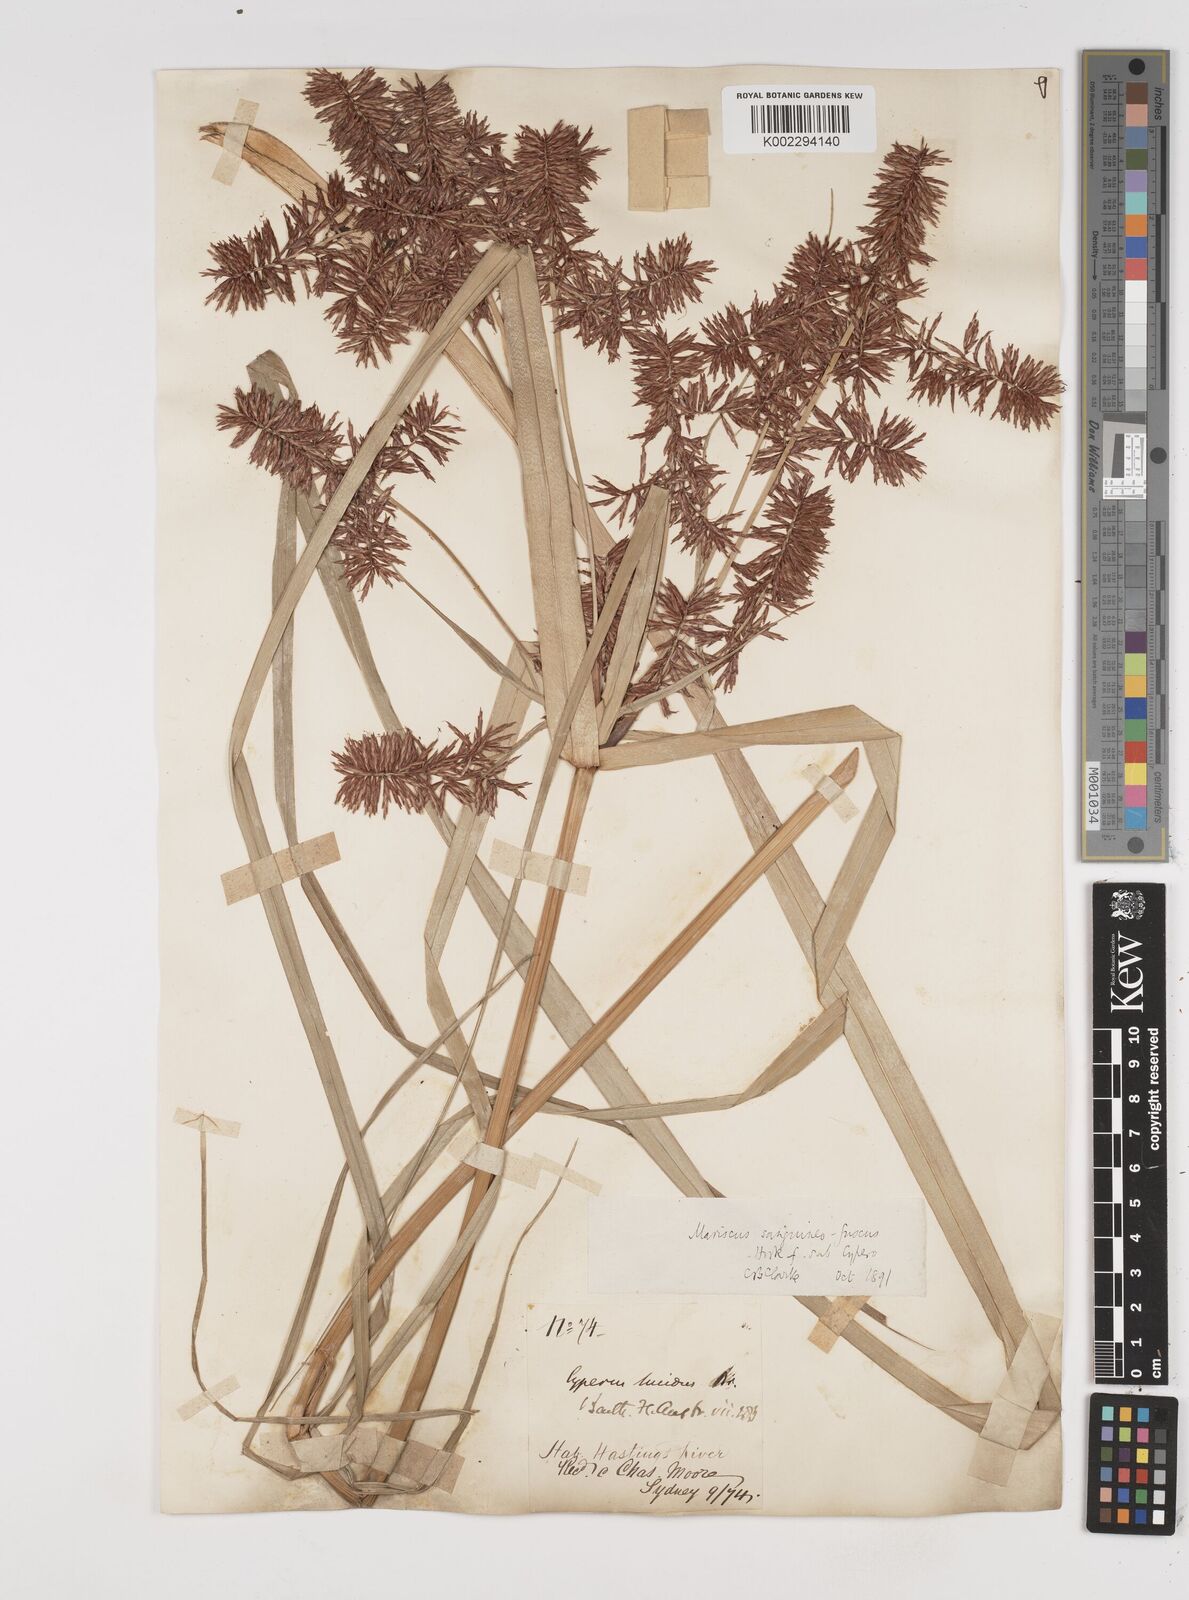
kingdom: Plantae
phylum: Tracheophyta
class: Liliopsida
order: Poales
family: Cyperaceae
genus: Cyperus
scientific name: Cyperus lucidus
